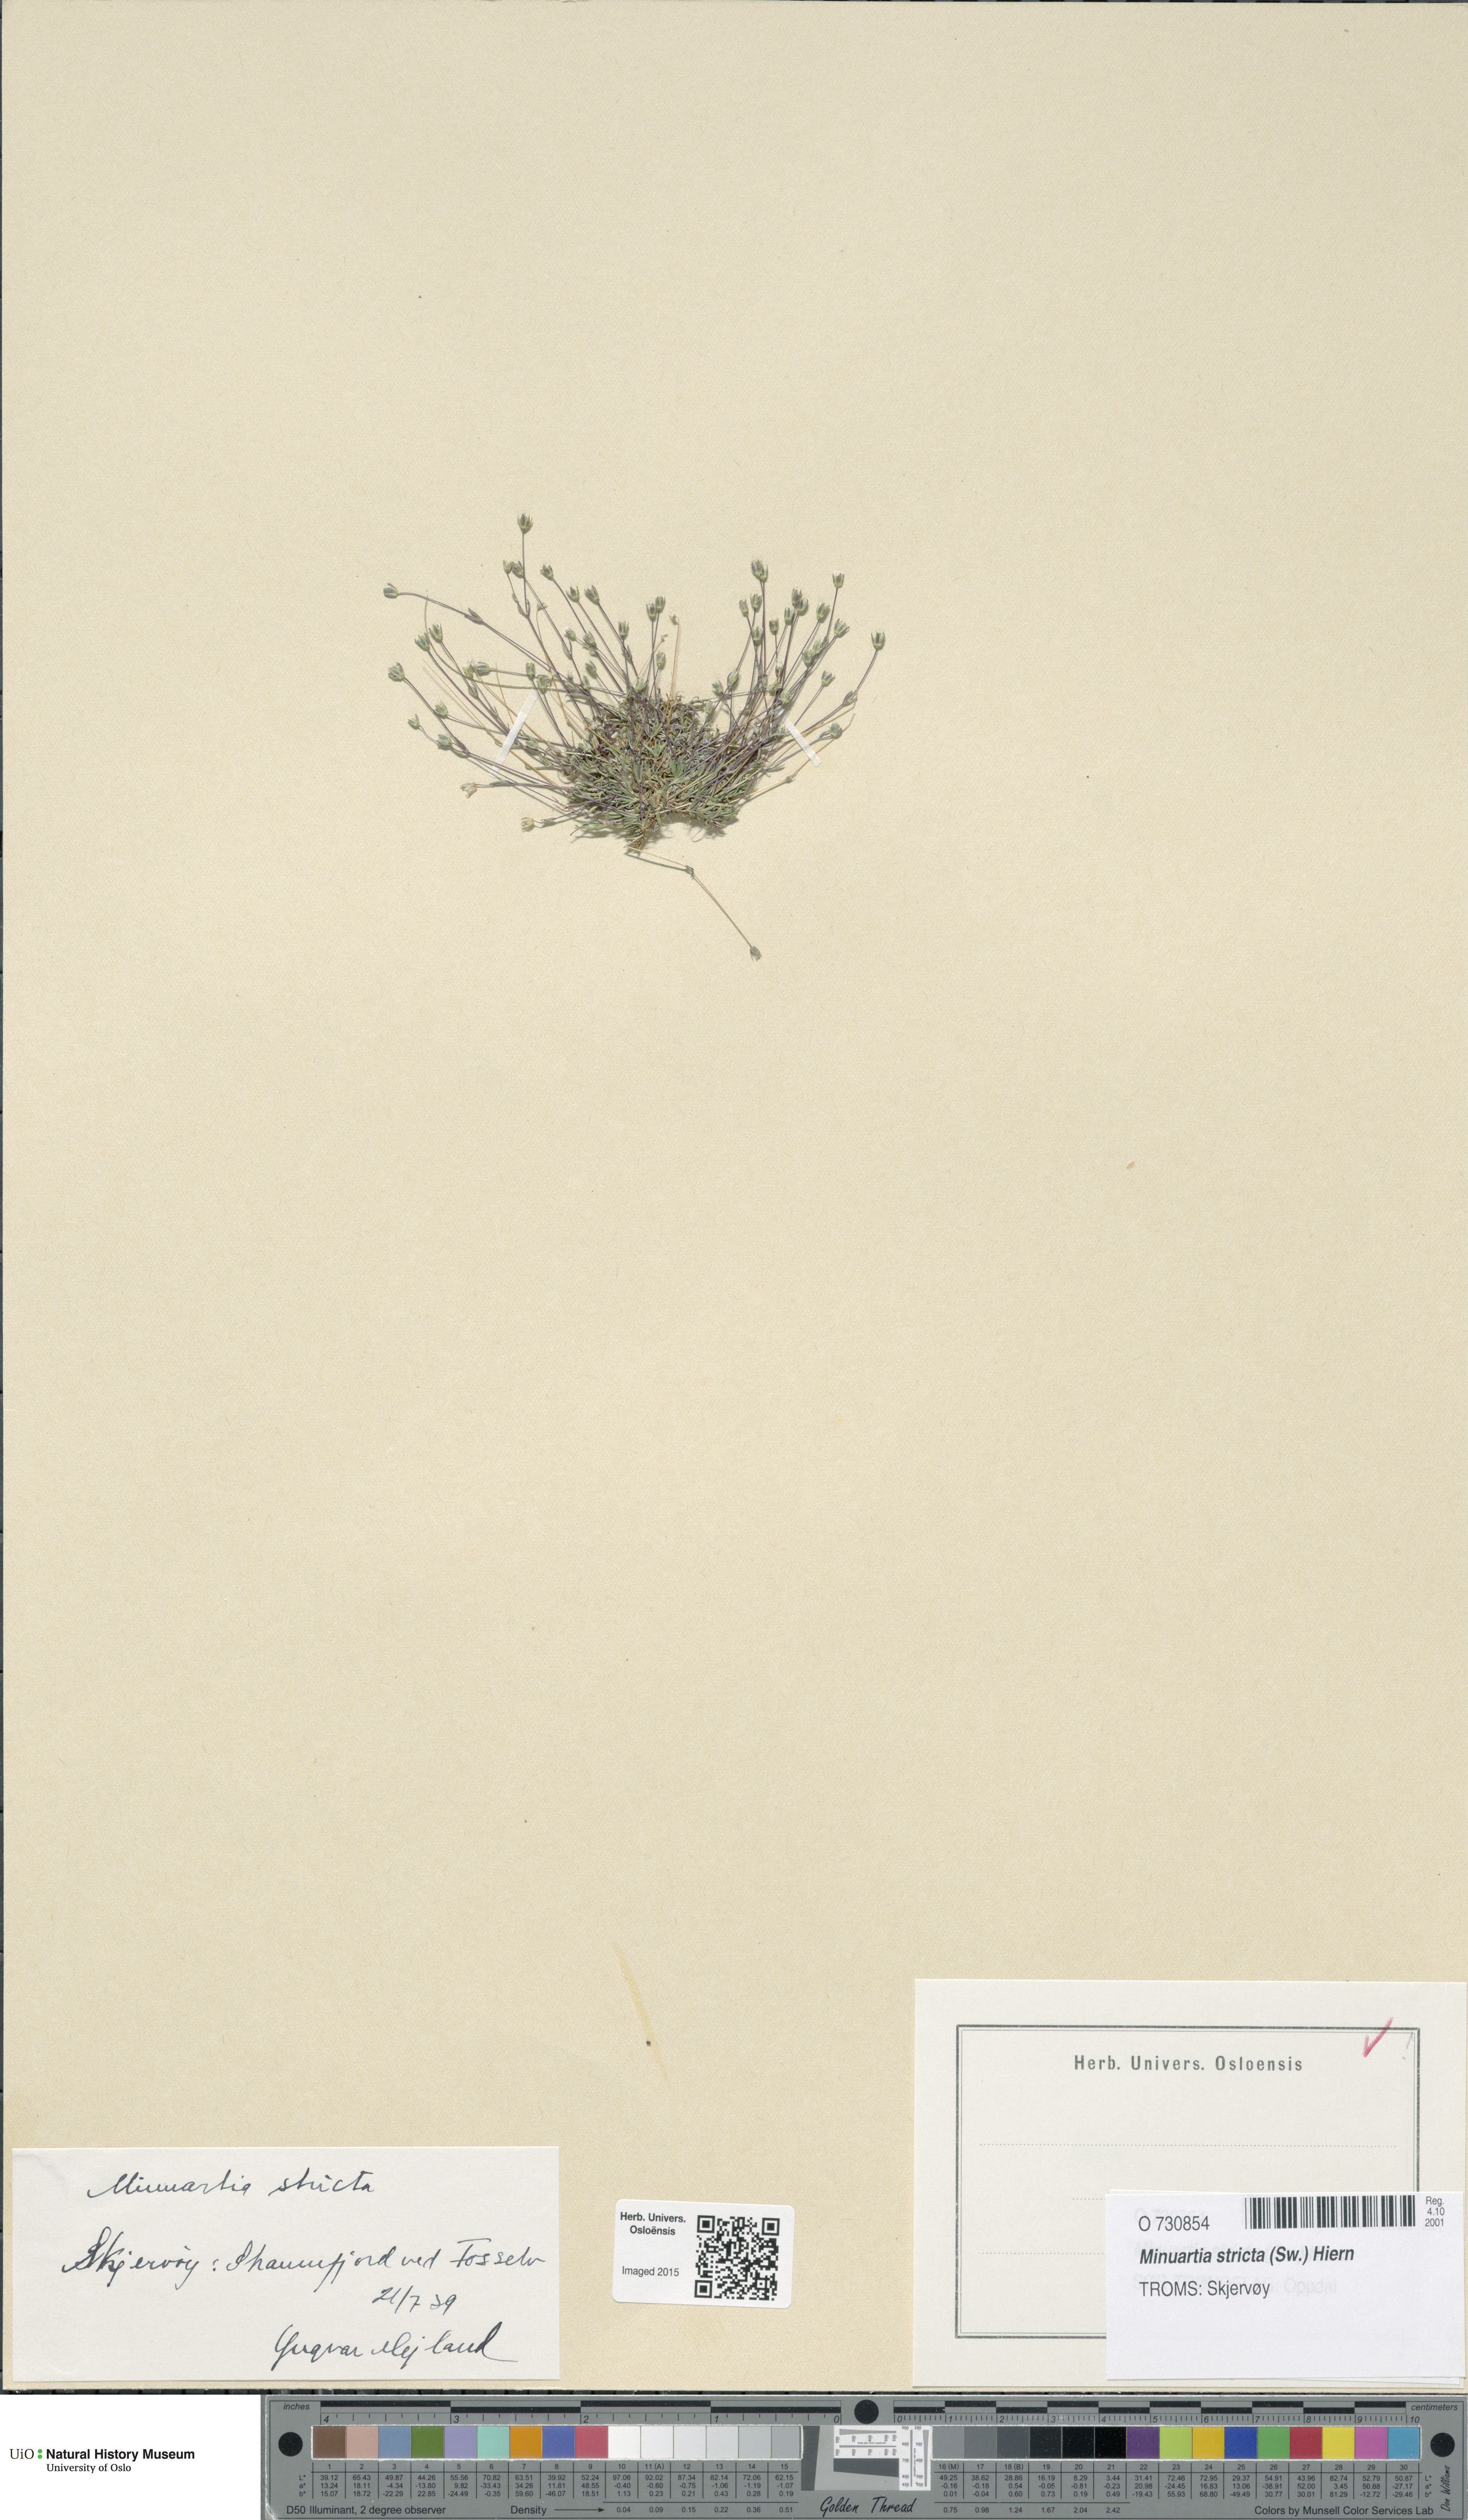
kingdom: Plantae
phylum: Tracheophyta
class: Magnoliopsida
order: Caryophyllales
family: Caryophyllaceae
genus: Sabulina
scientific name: Sabulina stricta
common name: Bog sandwort
